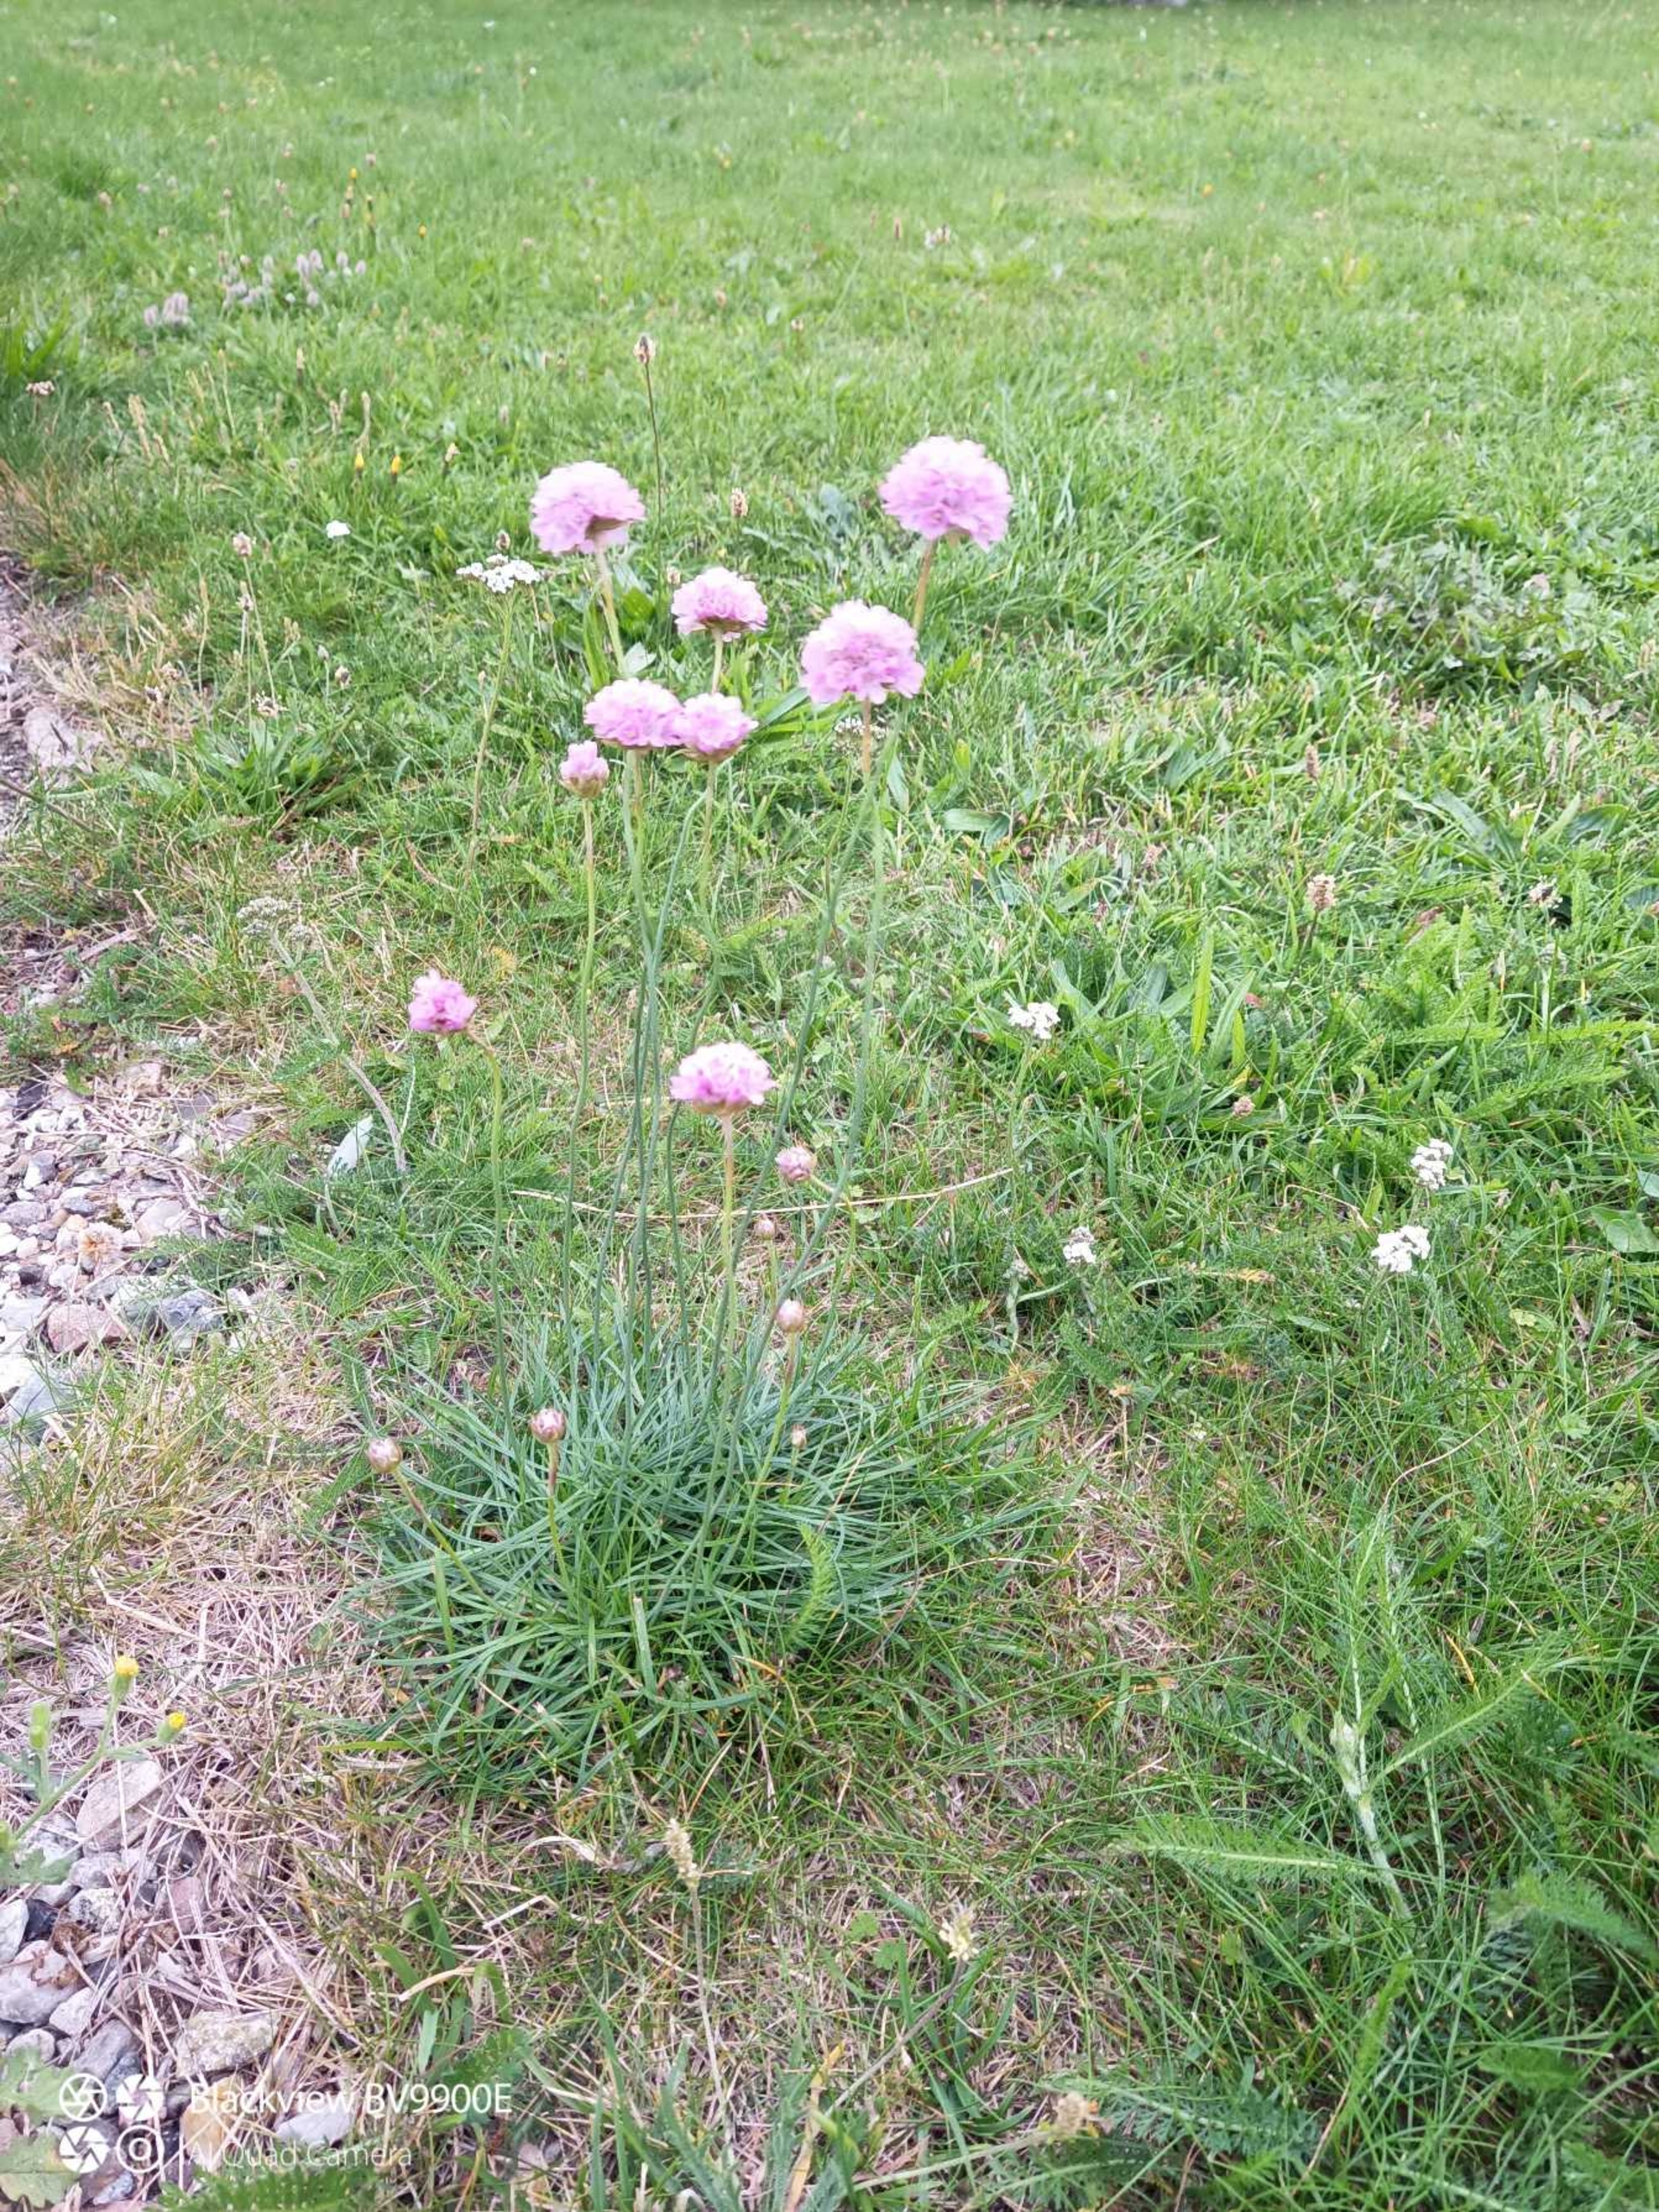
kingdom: Plantae
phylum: Tracheophyta
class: Magnoliopsida
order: Caryophyllales
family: Plumbaginaceae
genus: Armeria
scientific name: Armeria maritima
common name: Engelskgræs
